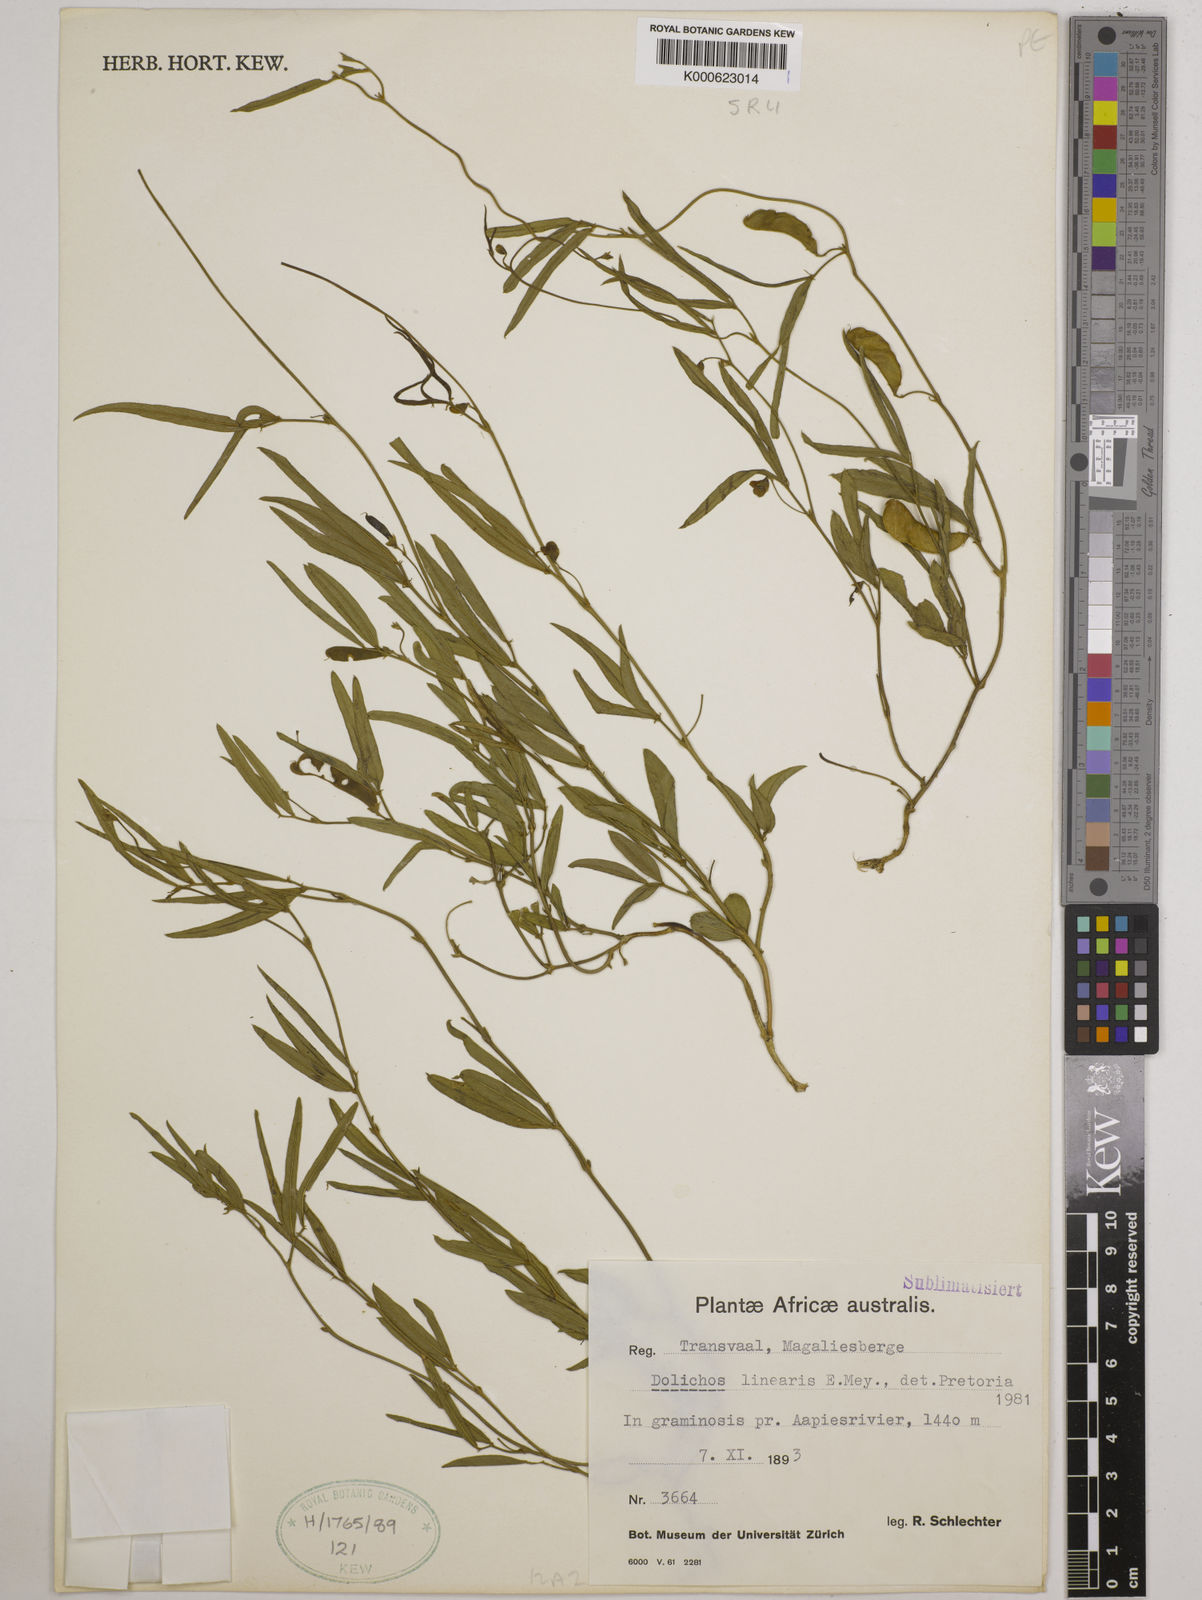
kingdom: Plantae
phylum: Tracheophyta
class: Magnoliopsida
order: Fabales
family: Fabaceae
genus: Dolichos
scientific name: Dolichos linearis
